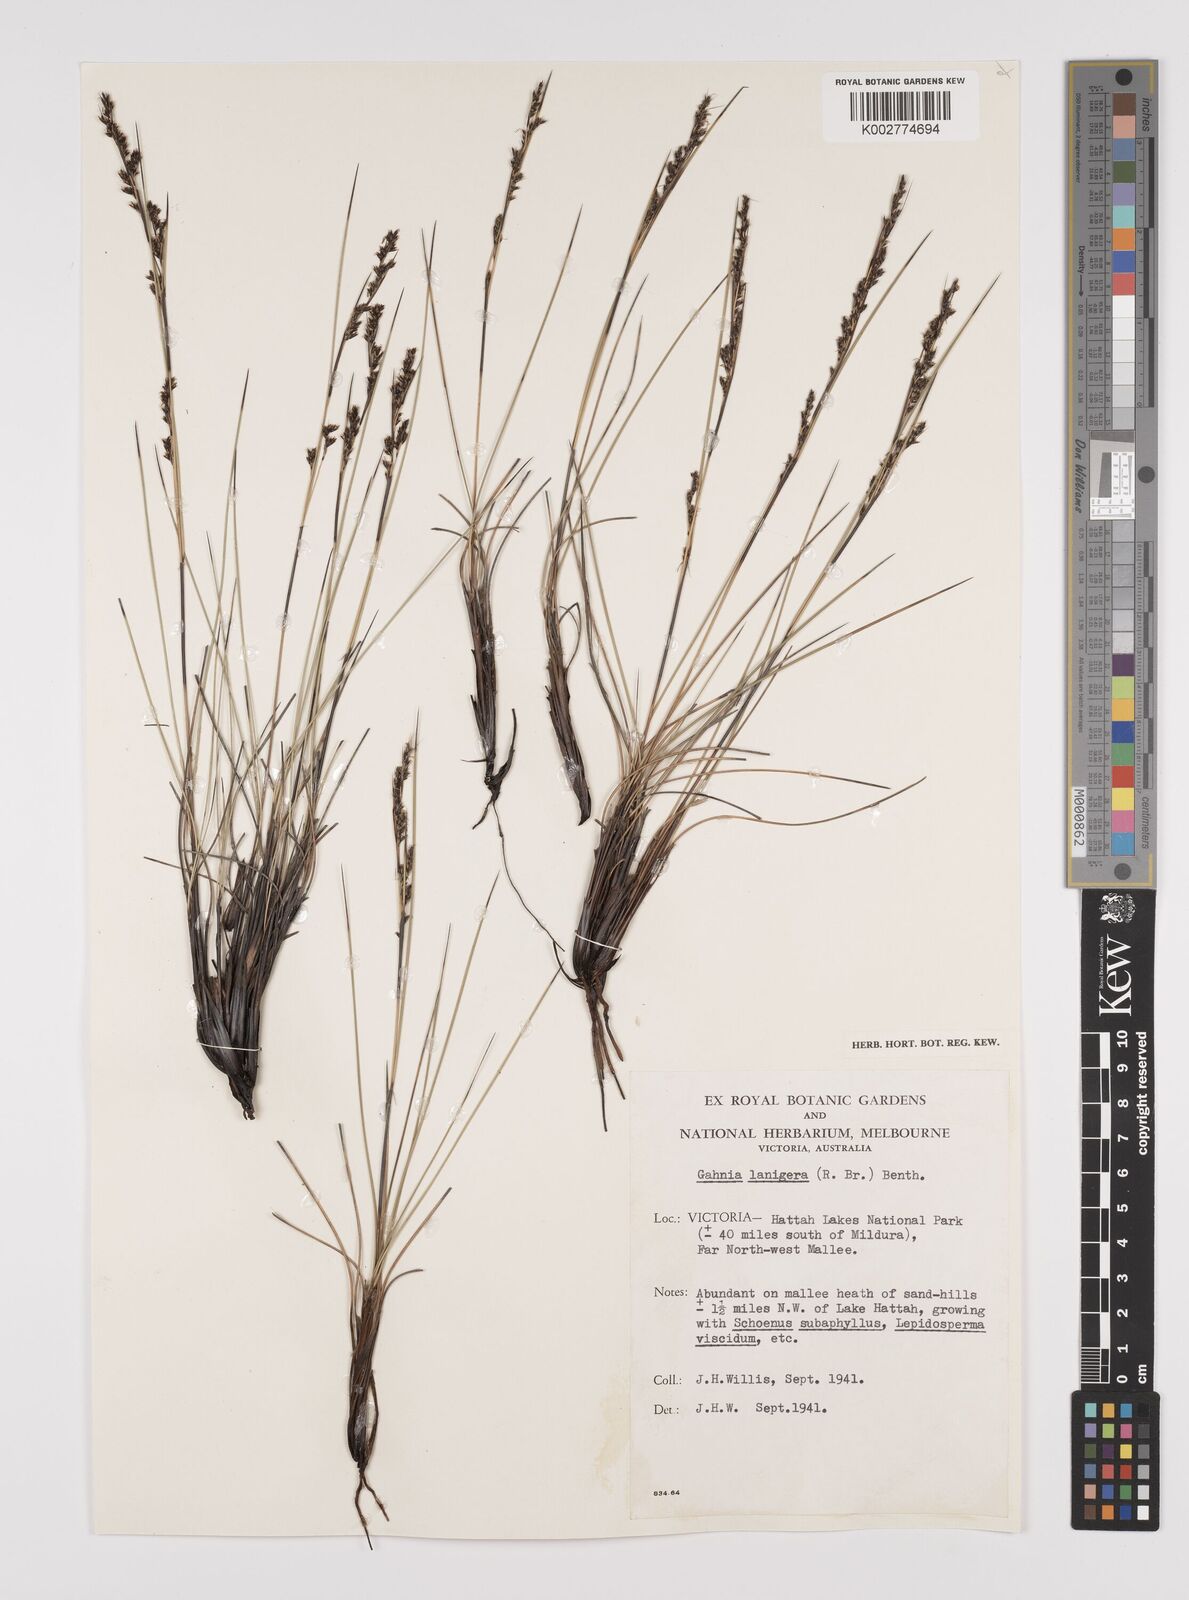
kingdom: Plantae
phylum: Tracheophyta
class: Liliopsida
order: Poales
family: Cyperaceae
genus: Gahnia
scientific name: Gahnia lanigera
